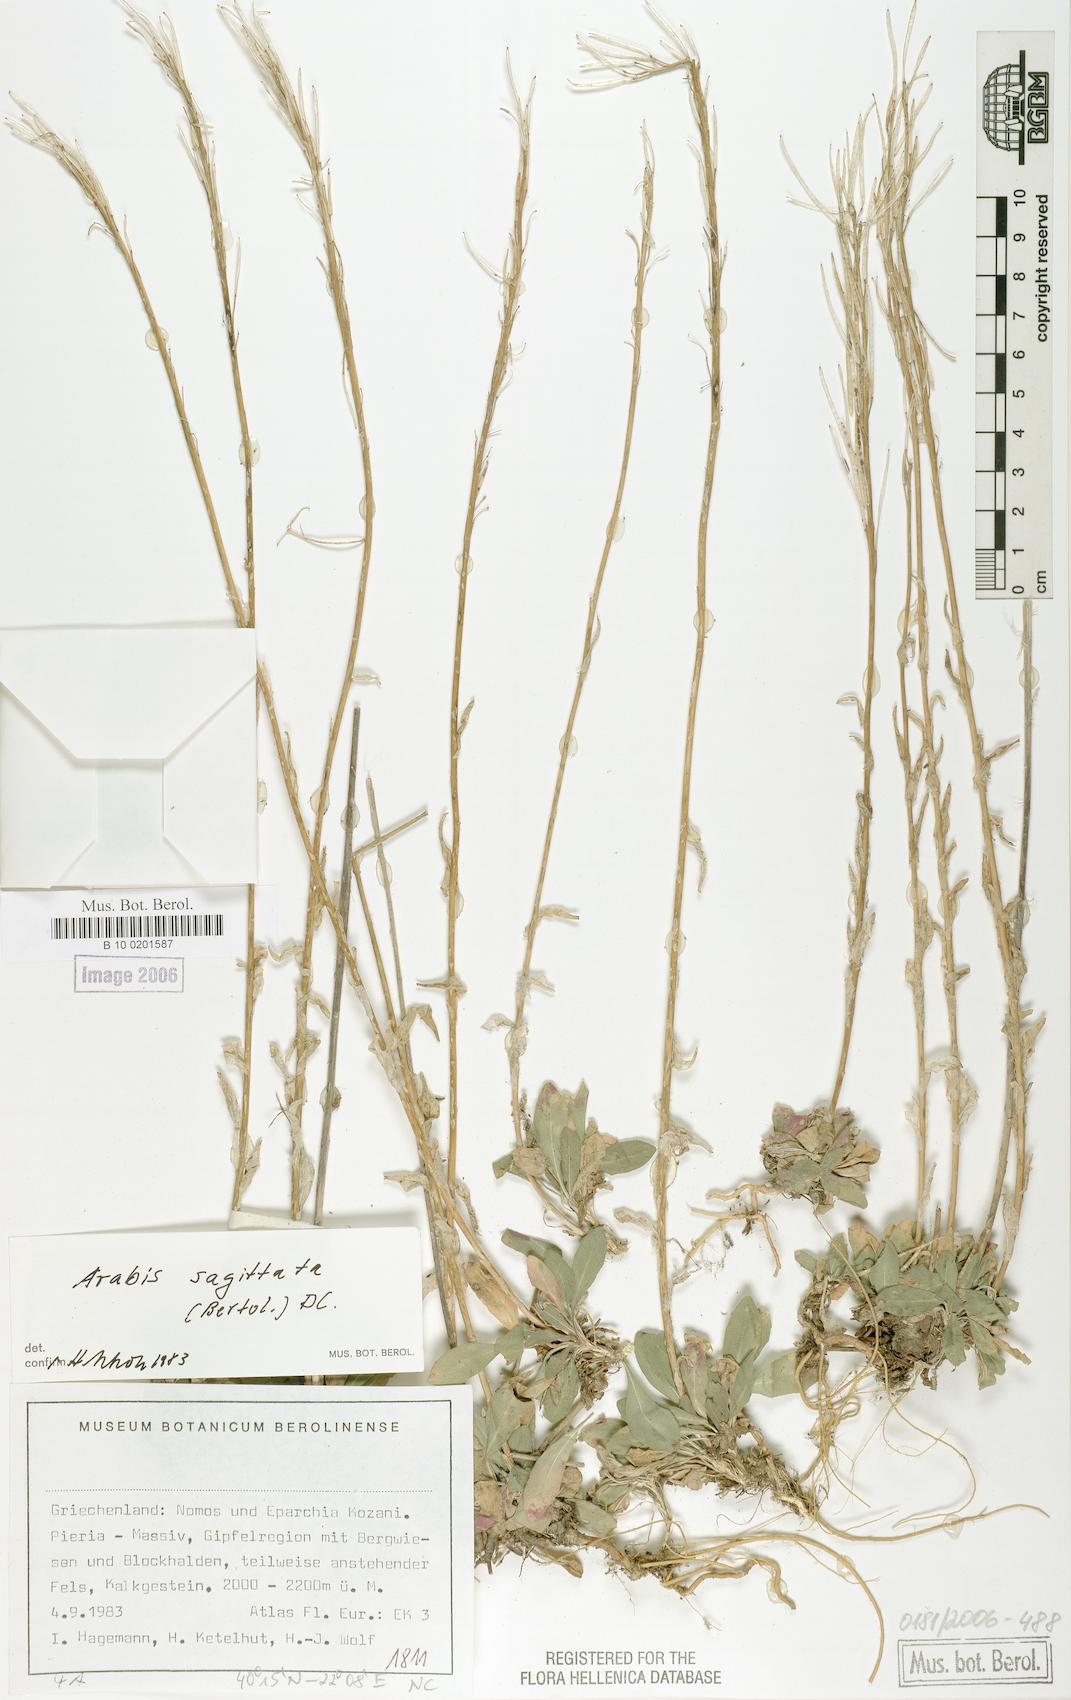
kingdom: Plantae
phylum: Tracheophyta
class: Magnoliopsida
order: Brassicales
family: Brassicaceae
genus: Arabis
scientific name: Arabis sagittata
